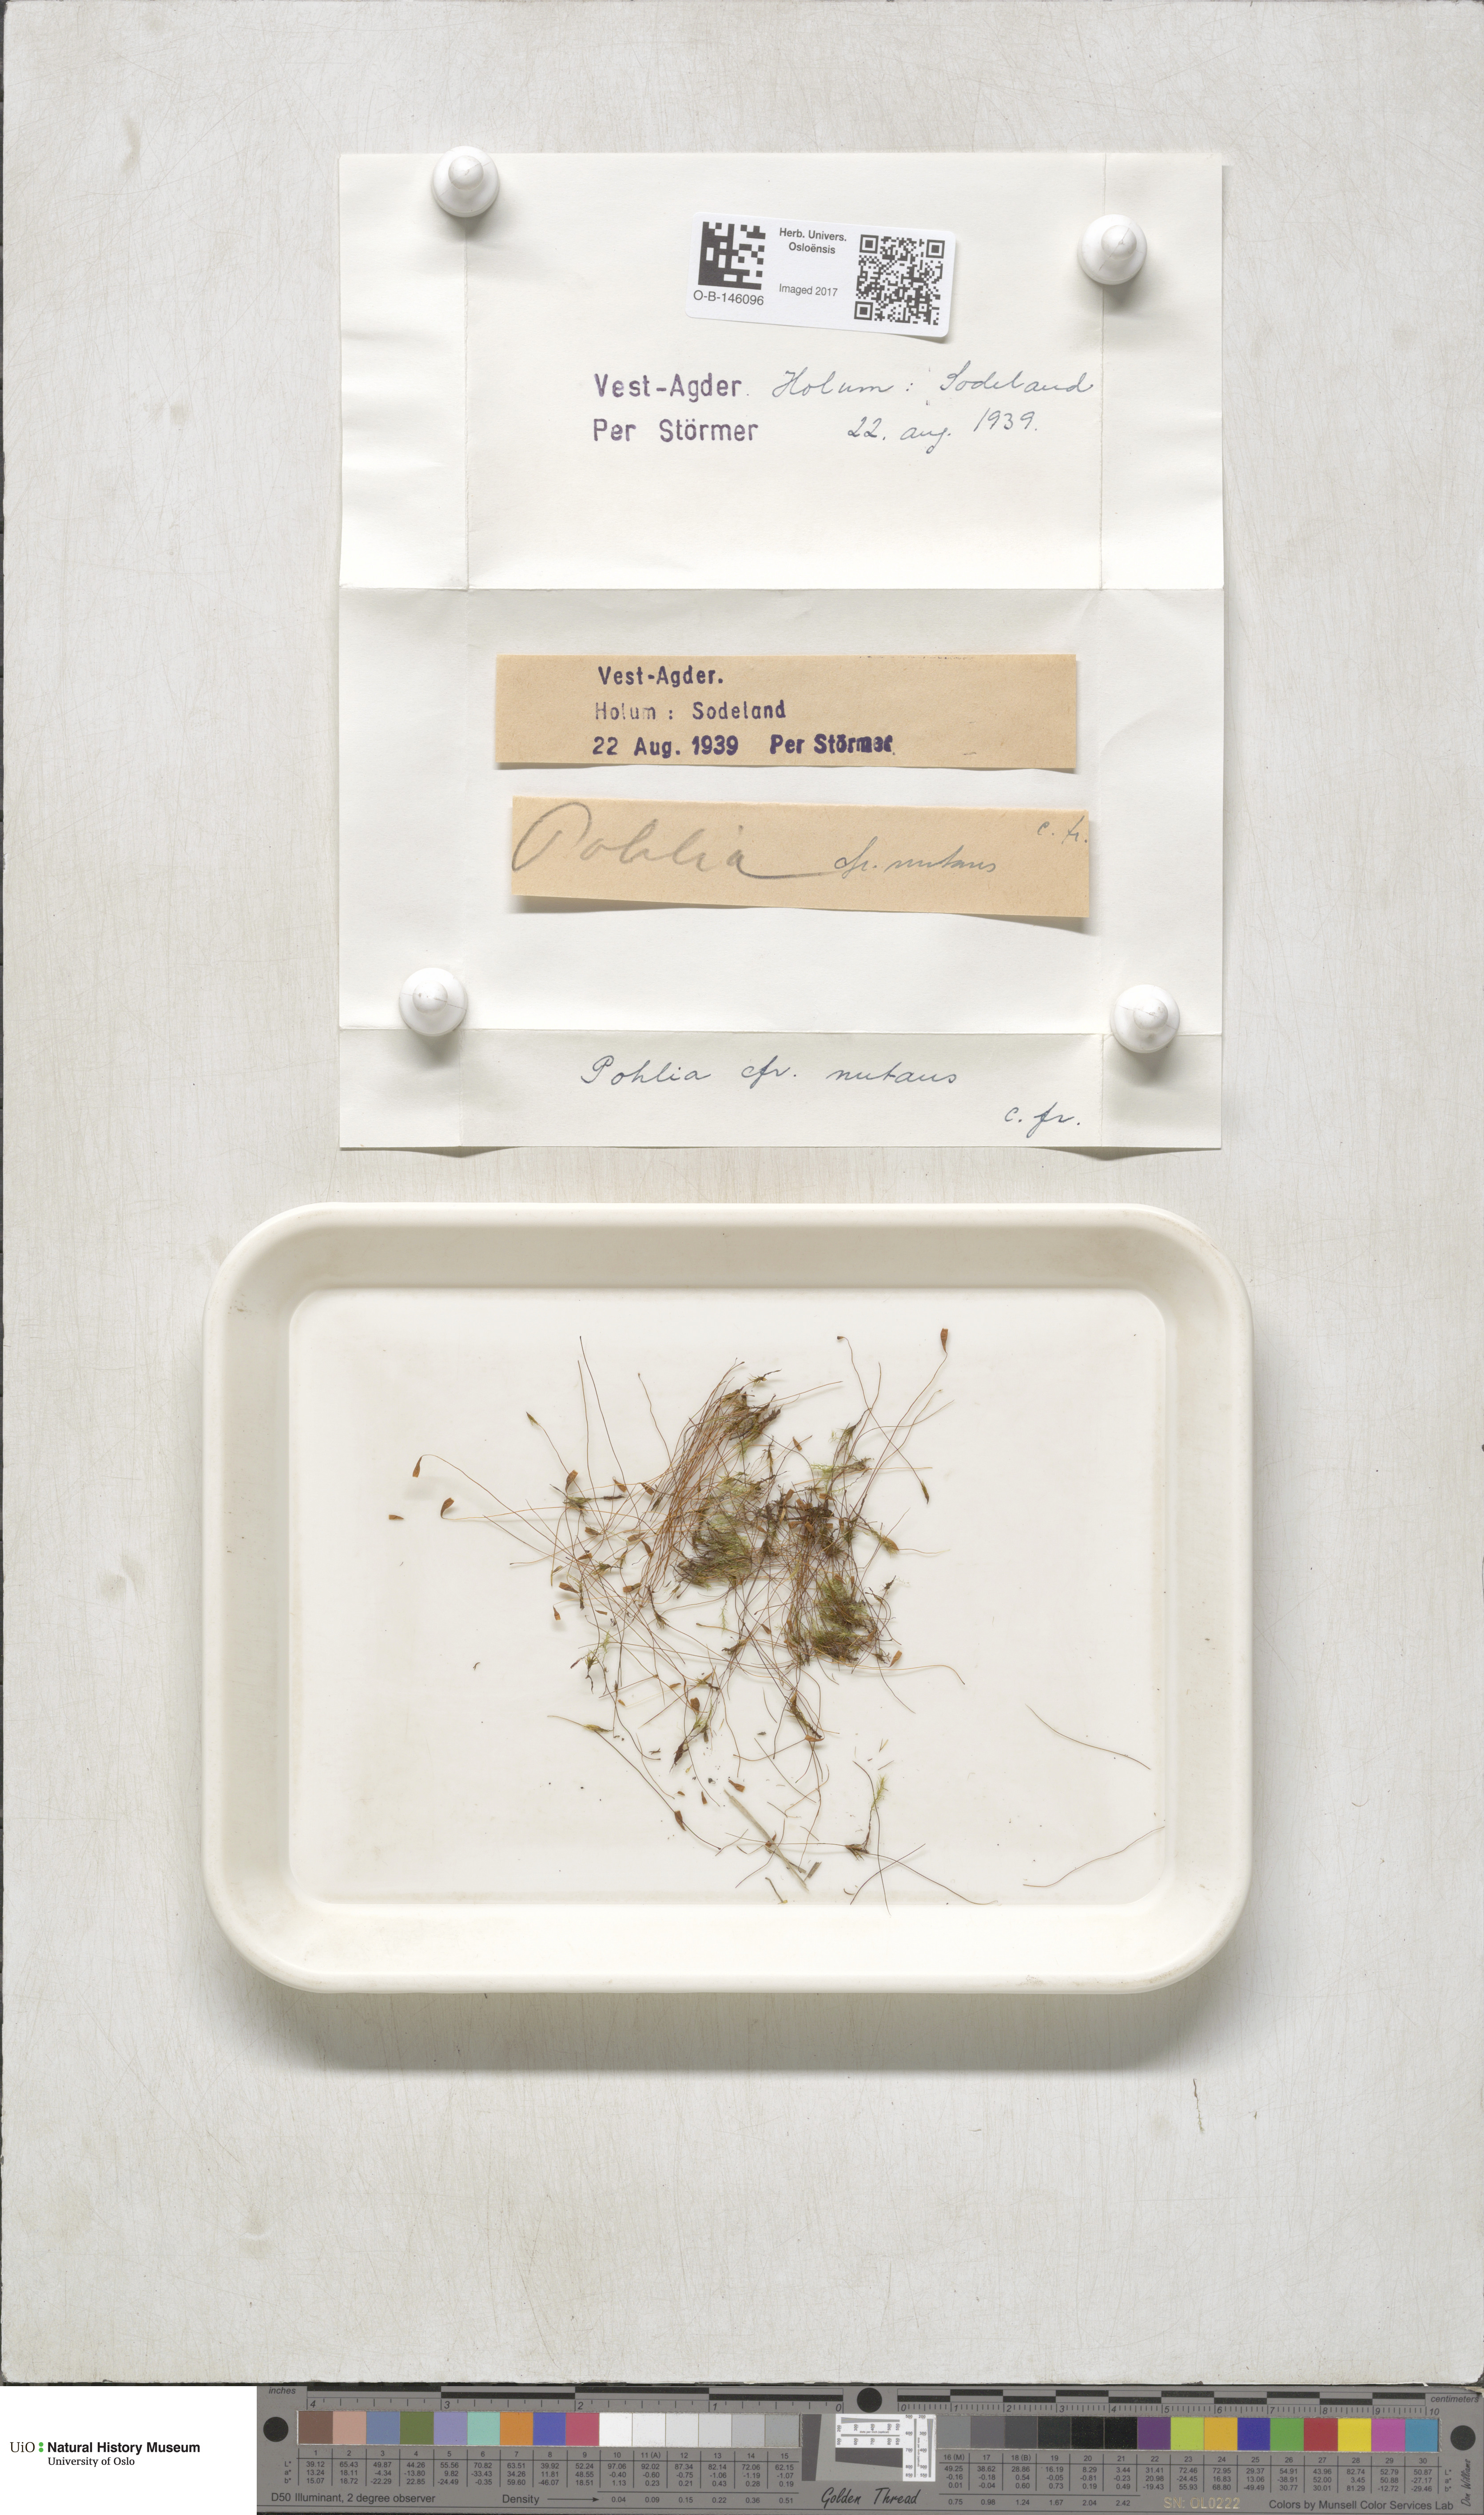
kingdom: Plantae
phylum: Bryophyta
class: Bryopsida
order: Bryales
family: Mniaceae
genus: Pohlia
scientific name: Pohlia nutans
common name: Nodding thread-moss
